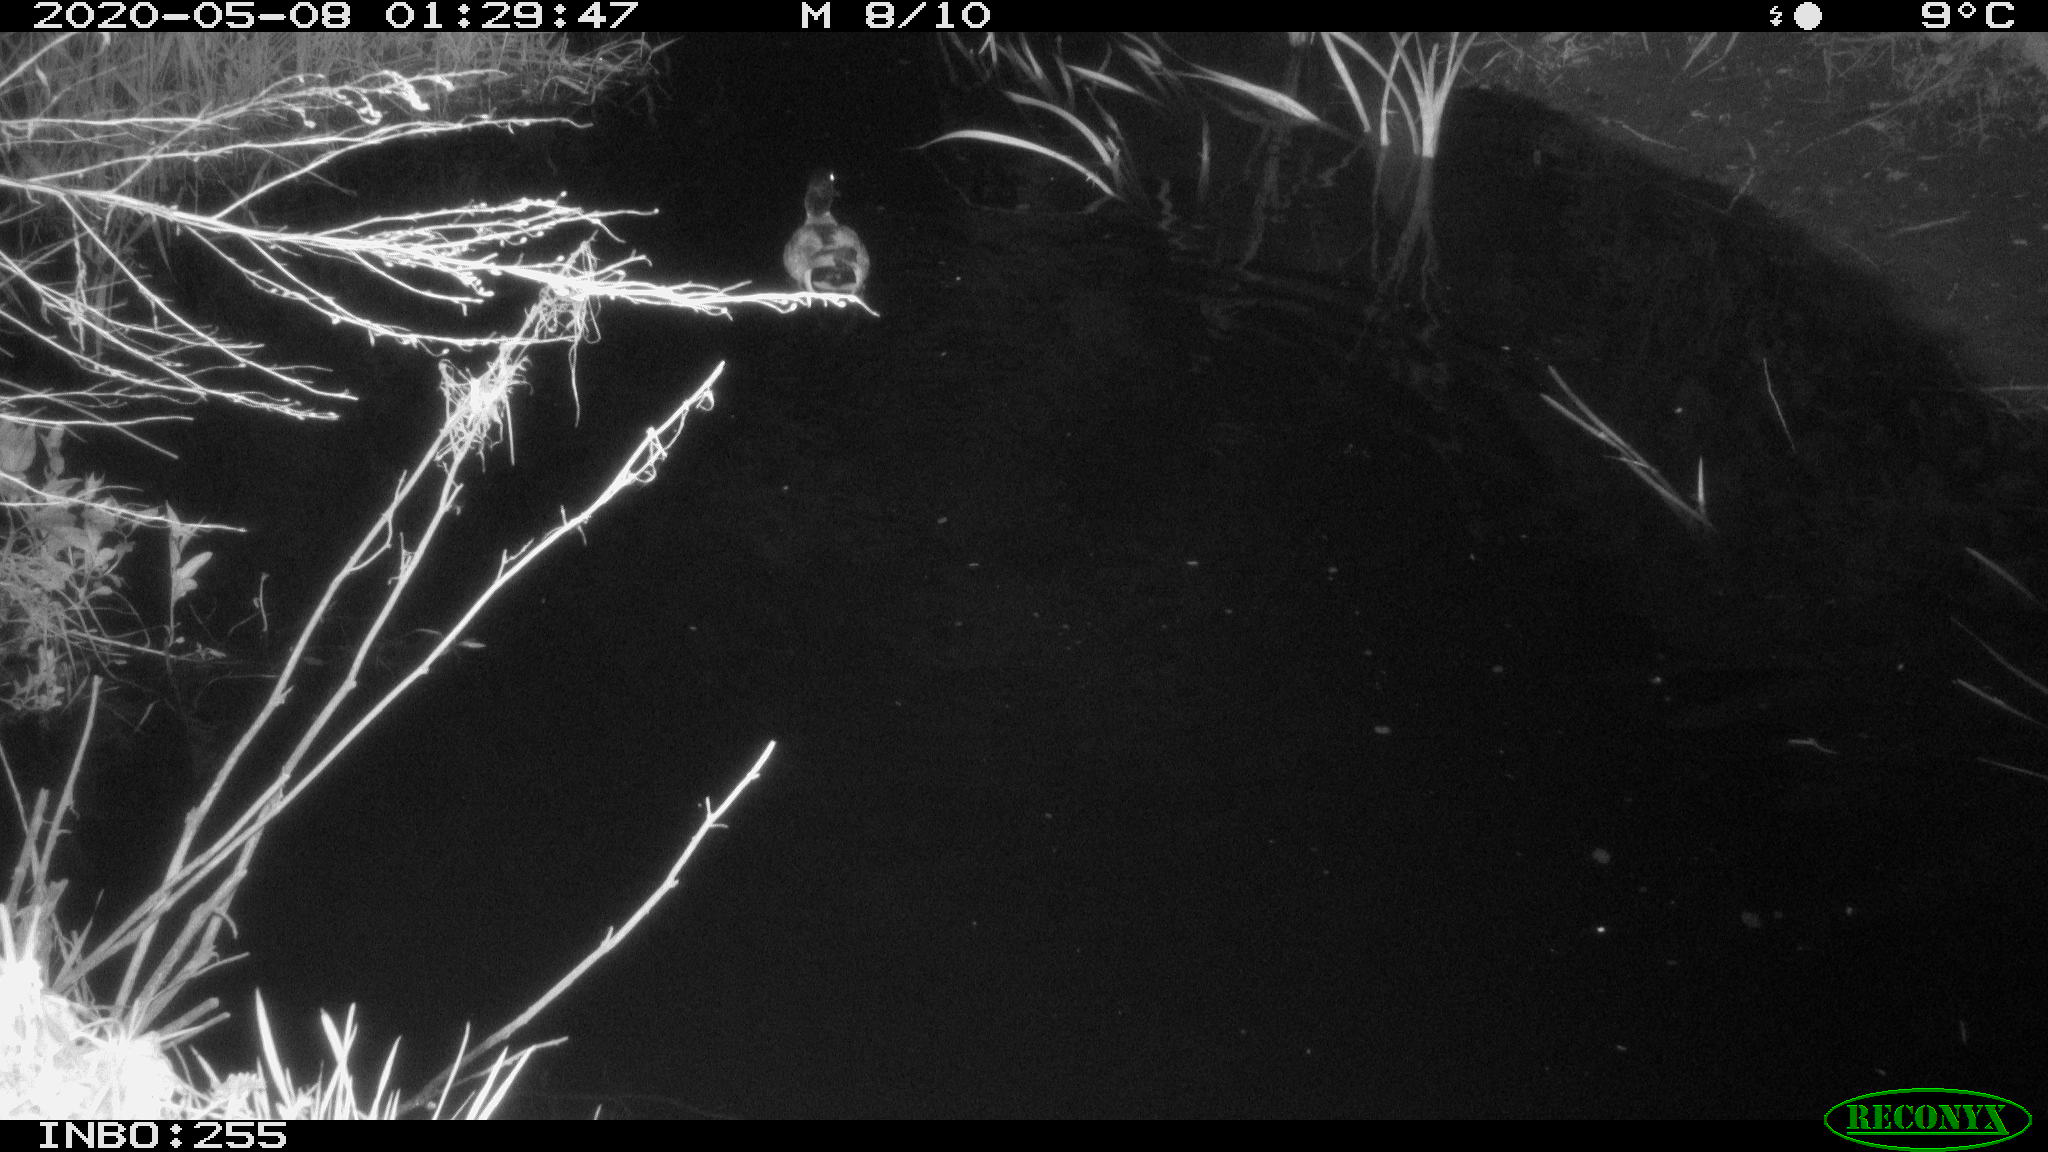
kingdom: Animalia
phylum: Chordata
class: Aves
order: Anseriformes
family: Anatidae
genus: Anas
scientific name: Anas platyrhynchos
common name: Mallard
